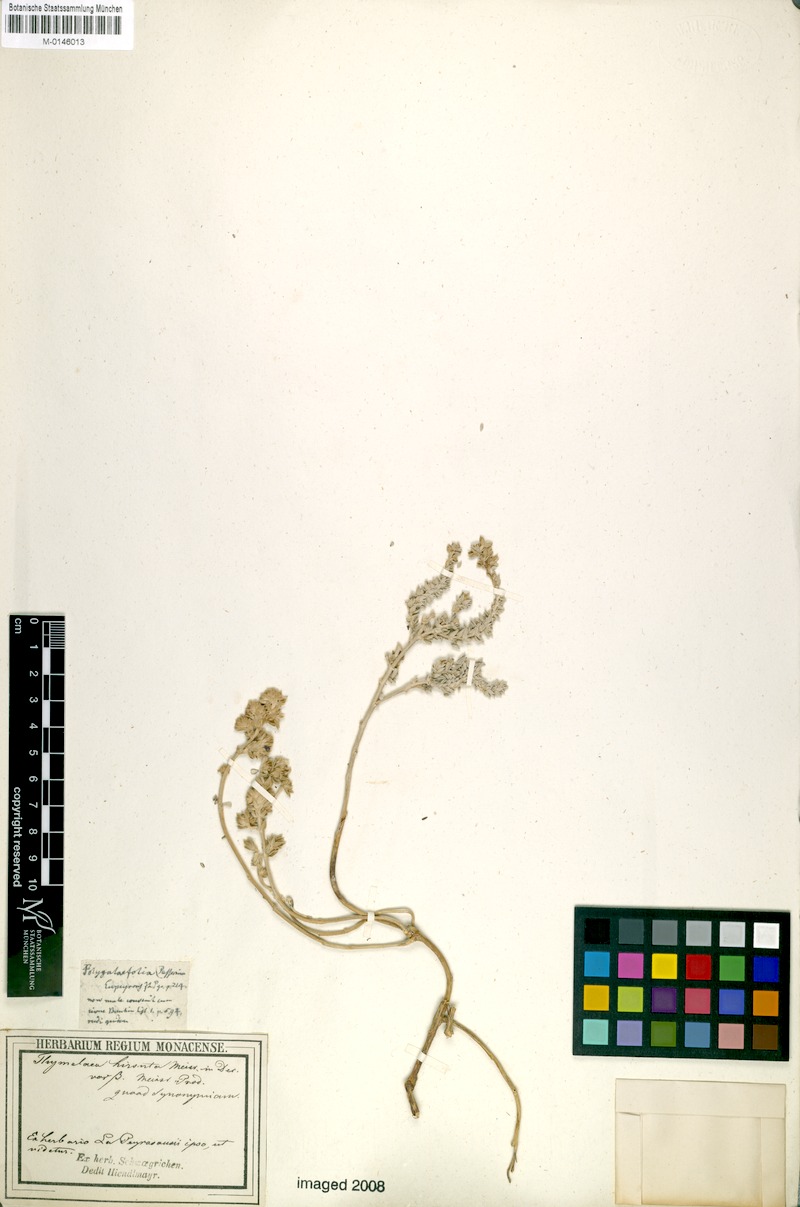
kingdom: Plantae
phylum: Tracheophyta
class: Magnoliopsida
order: Malvales
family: Thymelaeaceae
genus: Thymelaea
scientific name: Thymelaea hirsuta
